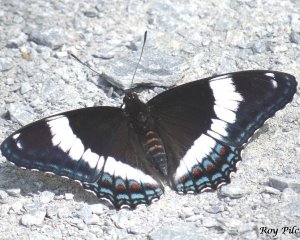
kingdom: Animalia
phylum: Arthropoda
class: Insecta
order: Lepidoptera
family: Nymphalidae
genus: Limenitis
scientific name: Limenitis arthemis
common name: Red-spotted Admiral
